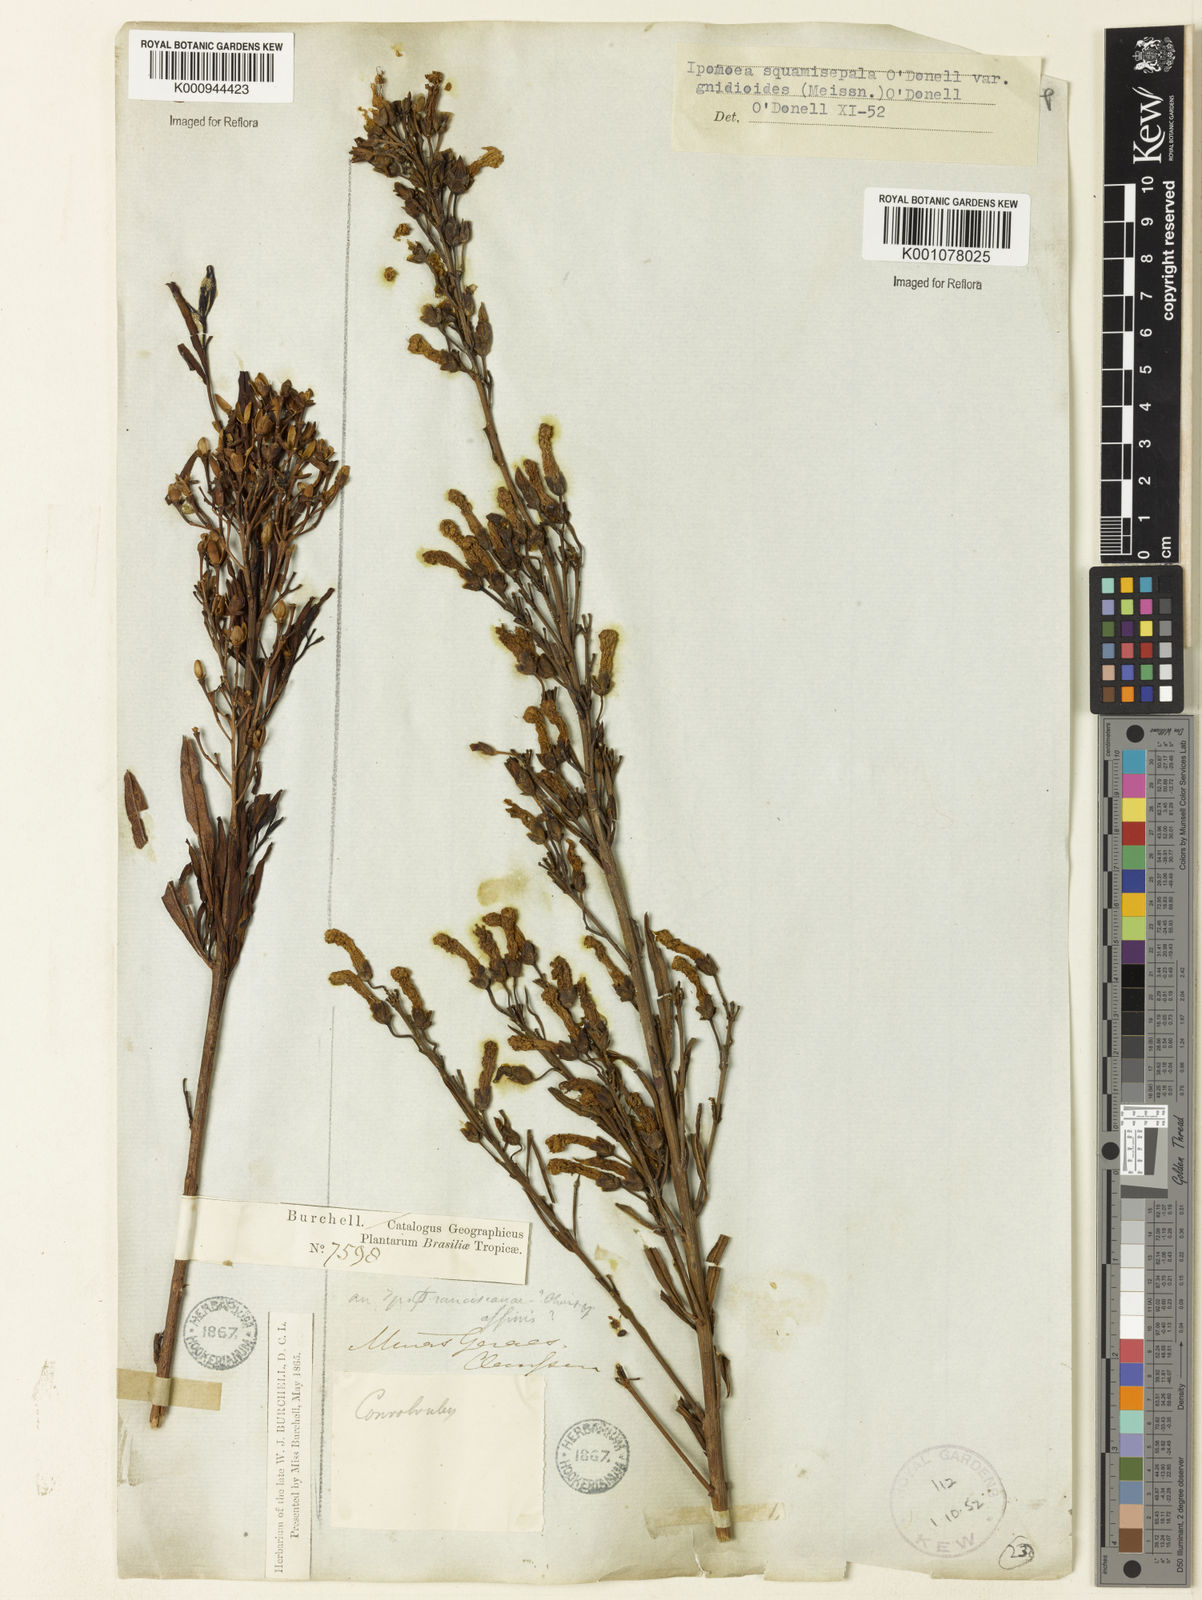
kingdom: Plantae
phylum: Tracheophyta
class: Magnoliopsida
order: Solanales
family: Convolvulaceae
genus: Ipomoea
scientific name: Ipomoea squamisepala
